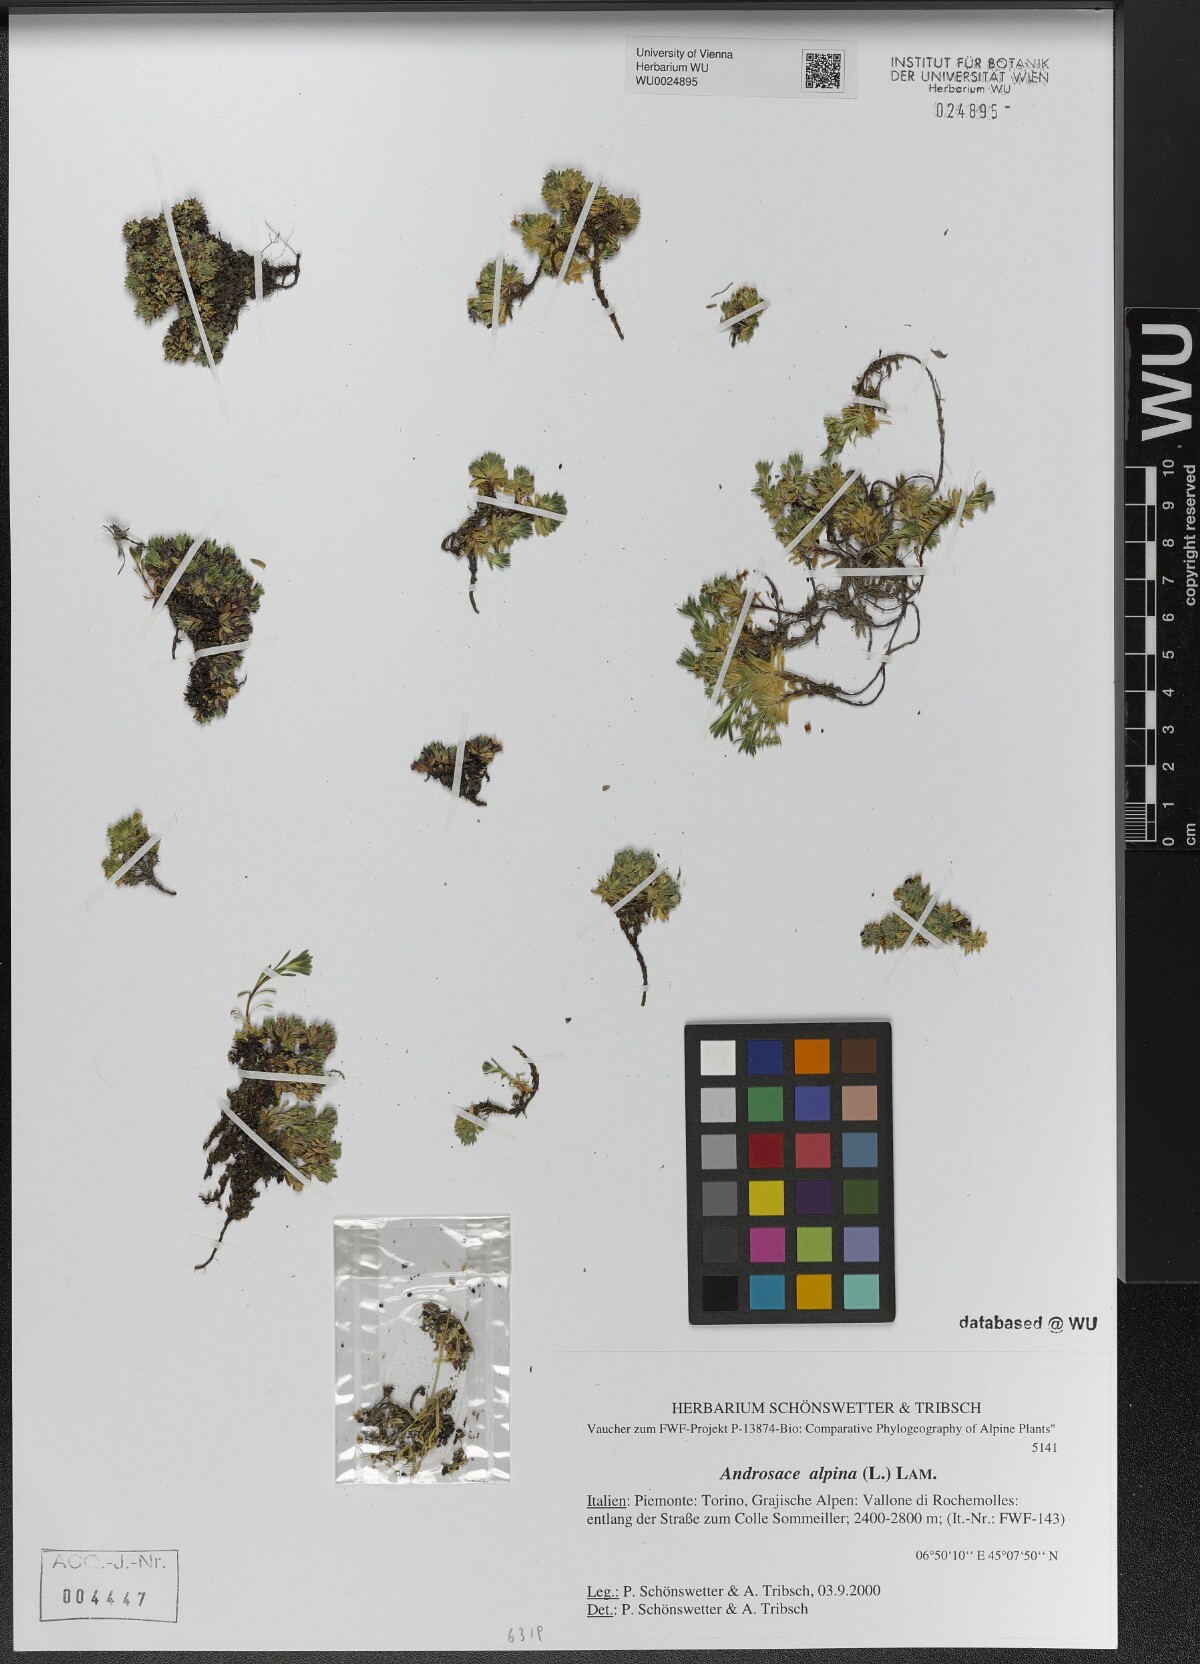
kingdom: Plantae
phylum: Tracheophyta
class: Magnoliopsida
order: Ericales
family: Primulaceae
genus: Androsace
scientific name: Androsace alpina
